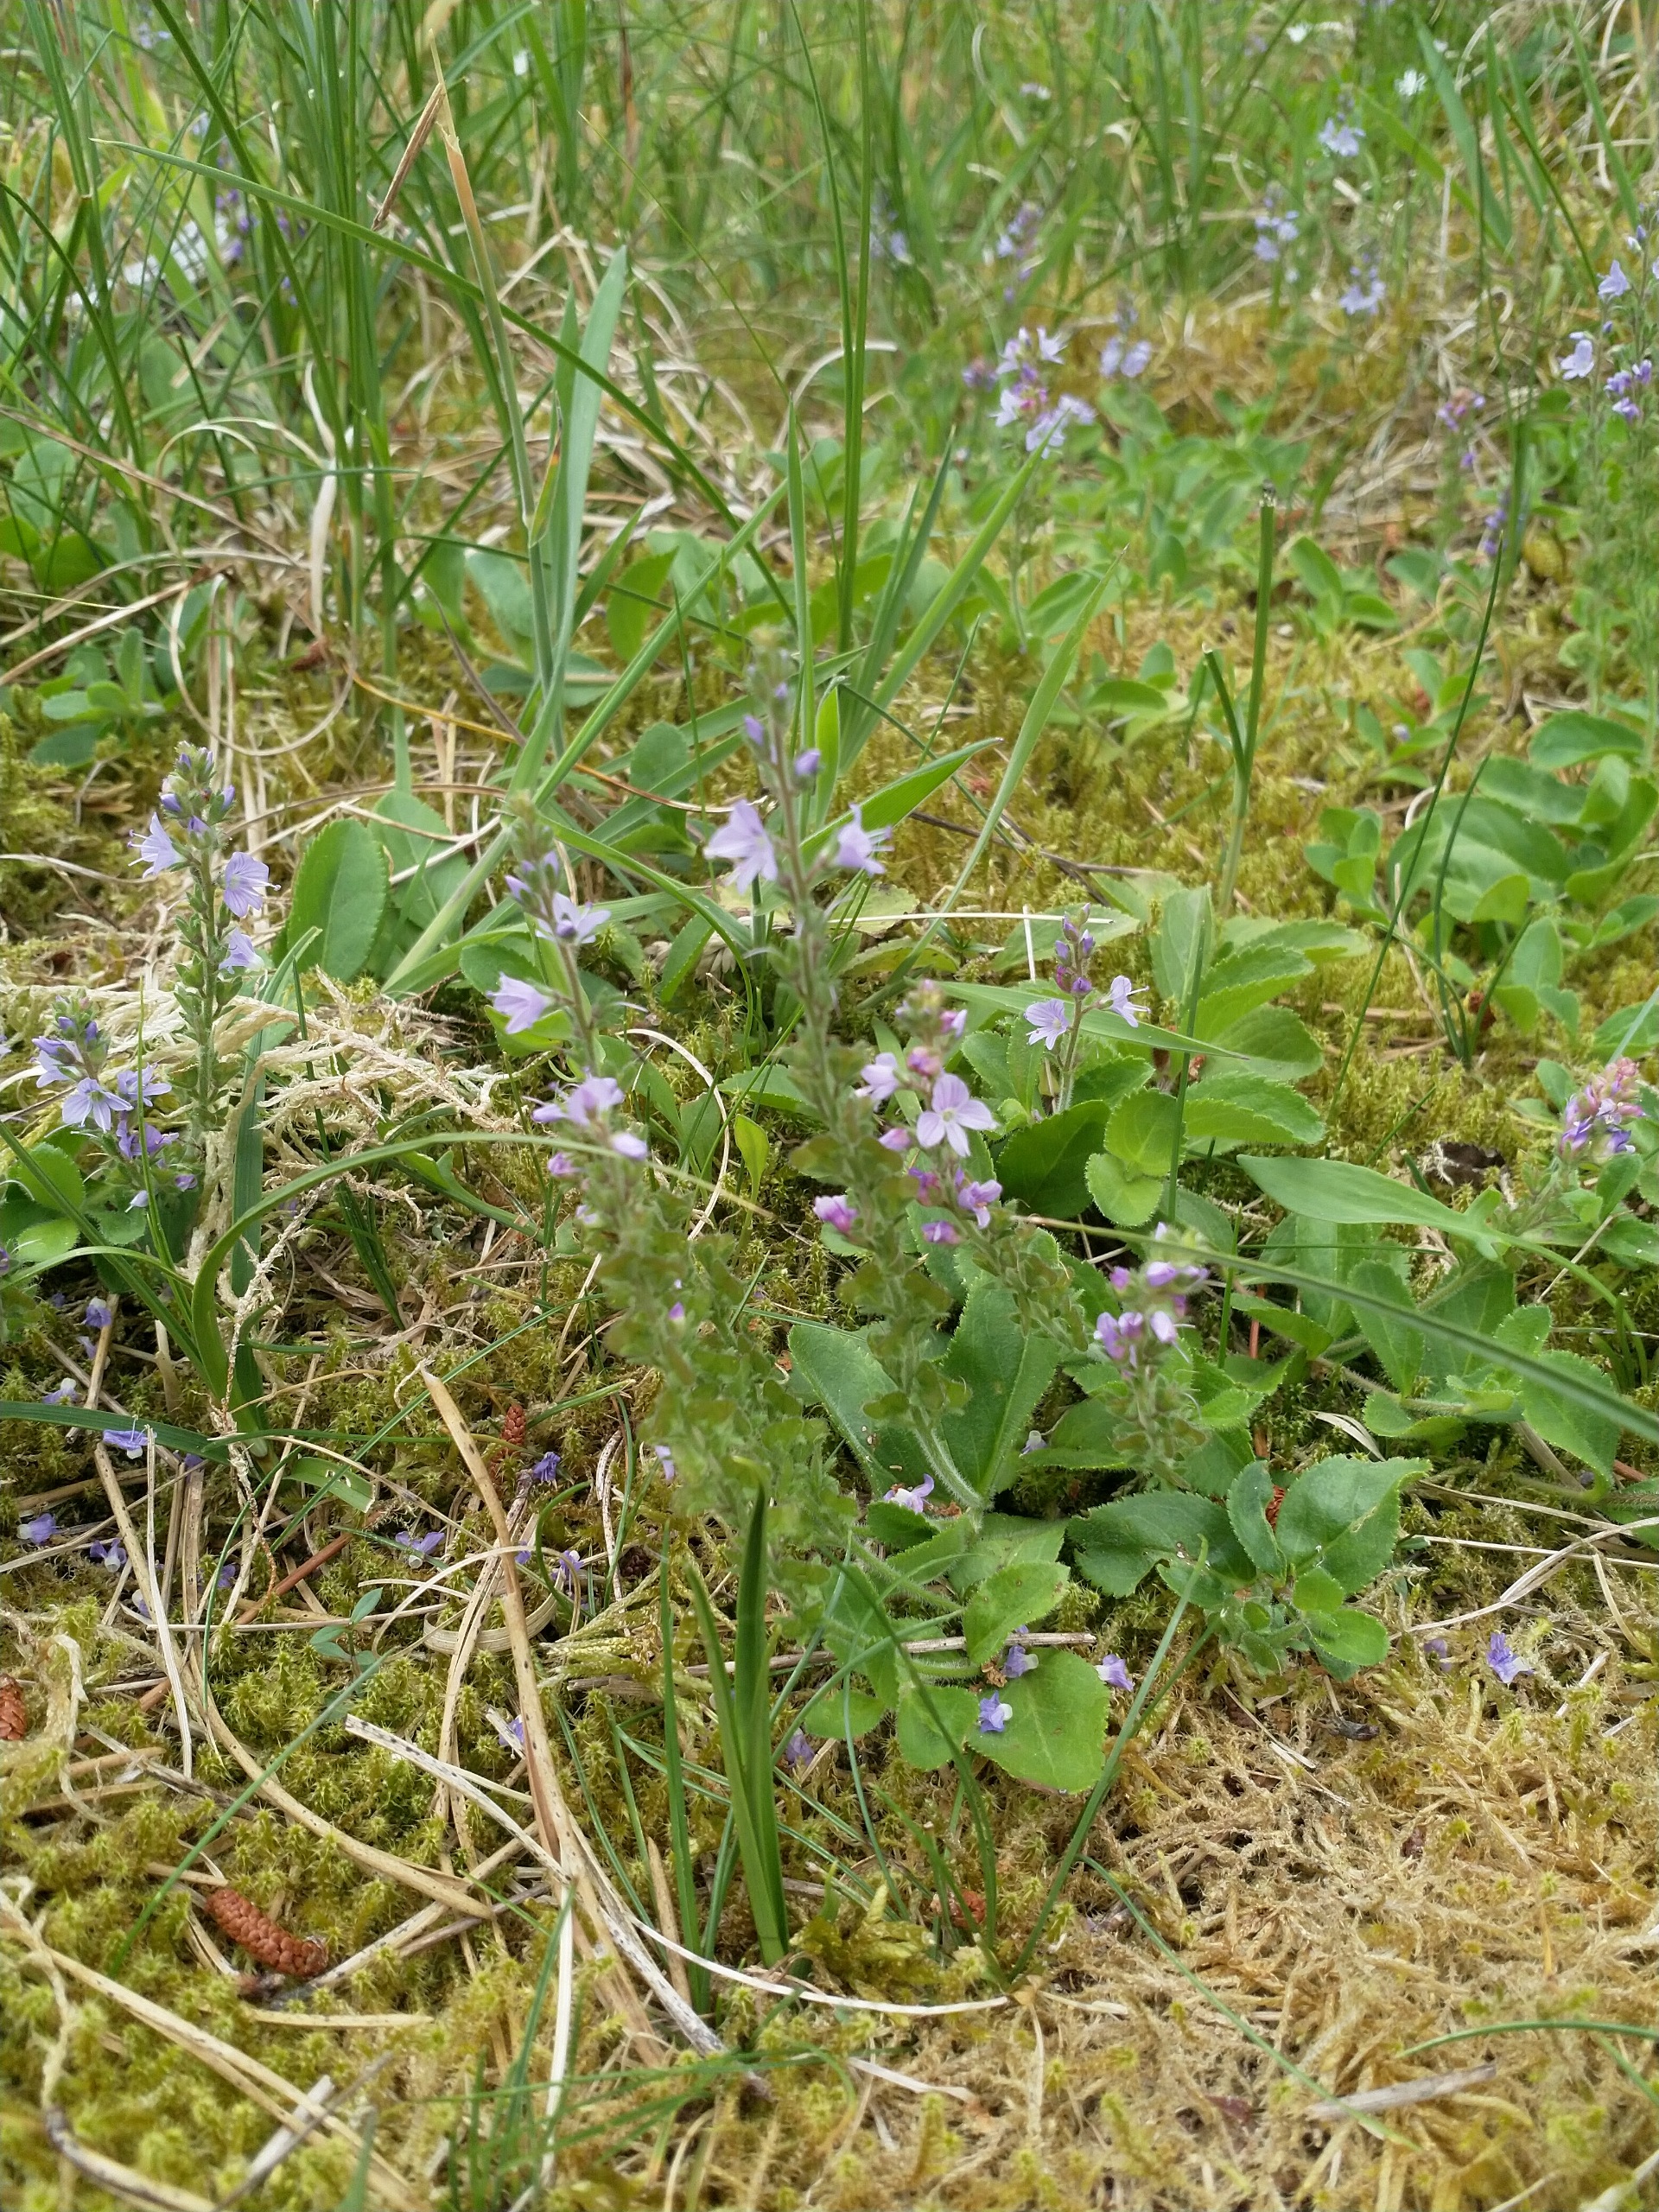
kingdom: Plantae
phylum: Tracheophyta
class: Magnoliopsida
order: Lamiales
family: Plantaginaceae
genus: Veronica
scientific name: Veronica officinalis
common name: Læge-ærenpris
